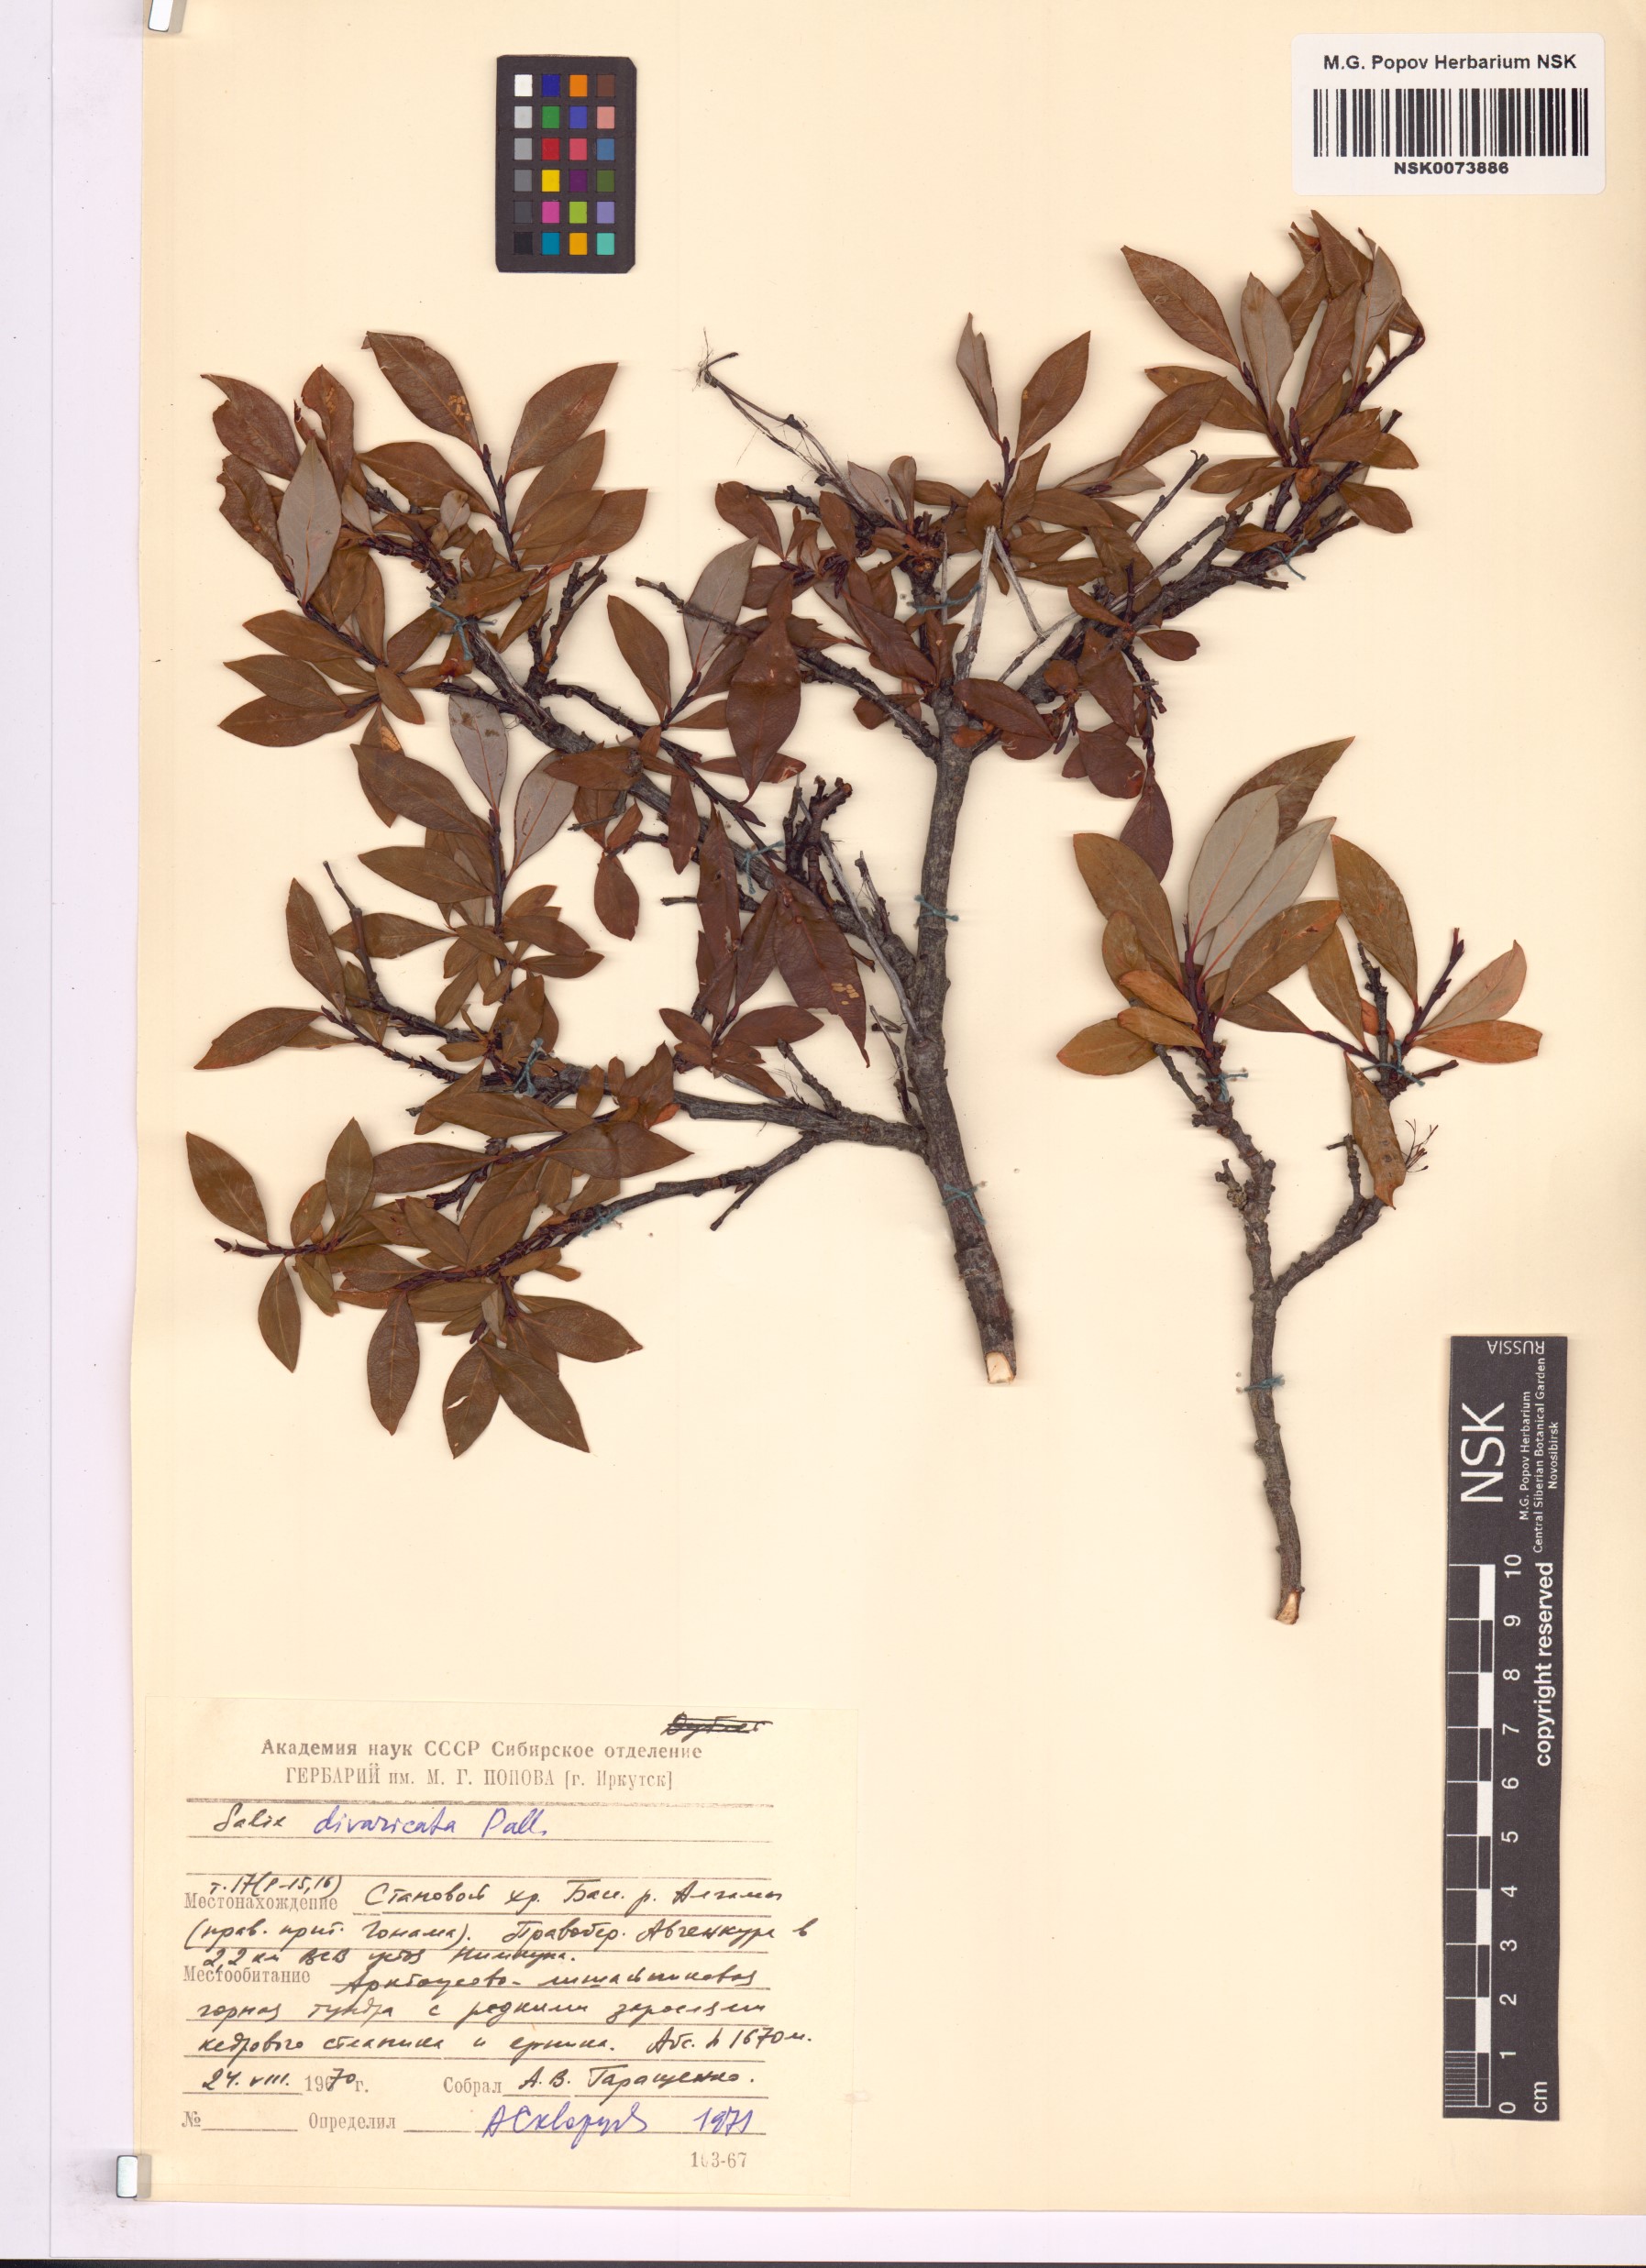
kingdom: Plantae
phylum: Tracheophyta
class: Magnoliopsida
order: Malpighiales
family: Salicaceae
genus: Salix
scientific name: Salix divaricata
